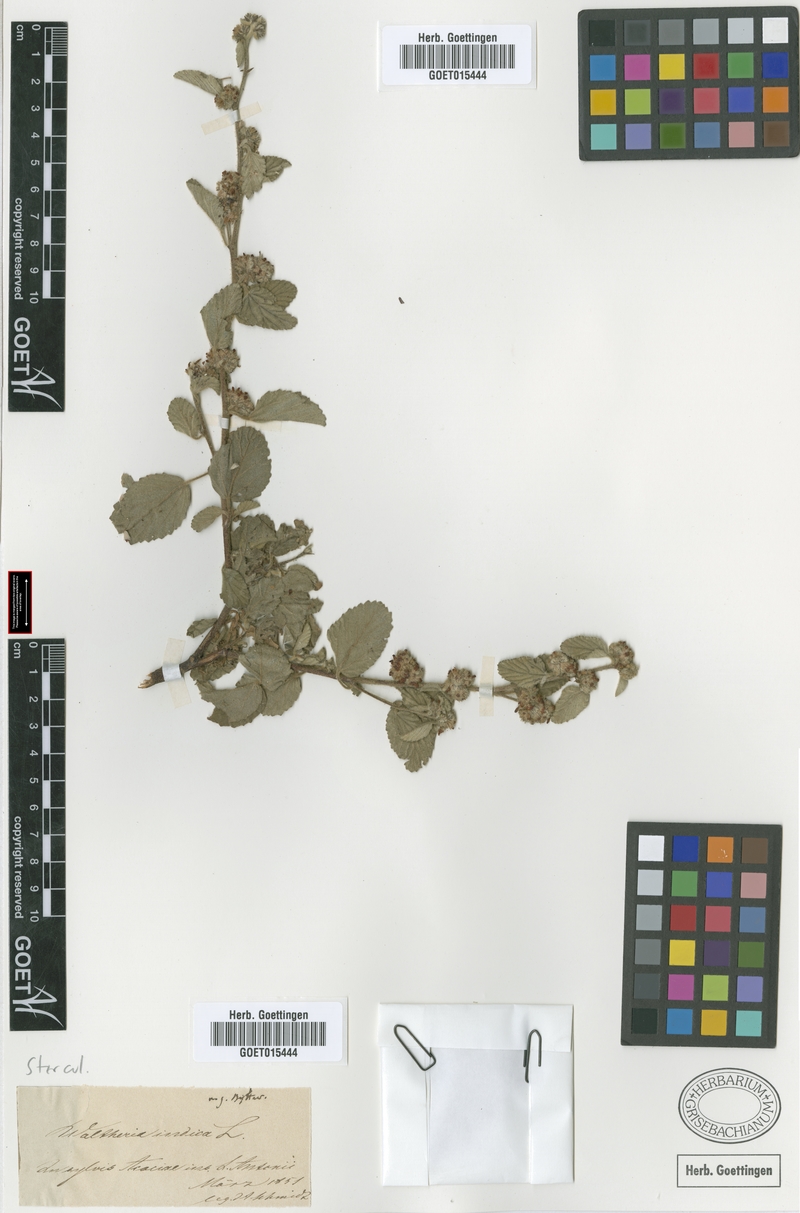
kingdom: Plantae
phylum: Tracheophyta
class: Magnoliopsida
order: Malvales
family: Malvaceae
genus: Waltheria
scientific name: Waltheria indica
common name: Leather-coat
